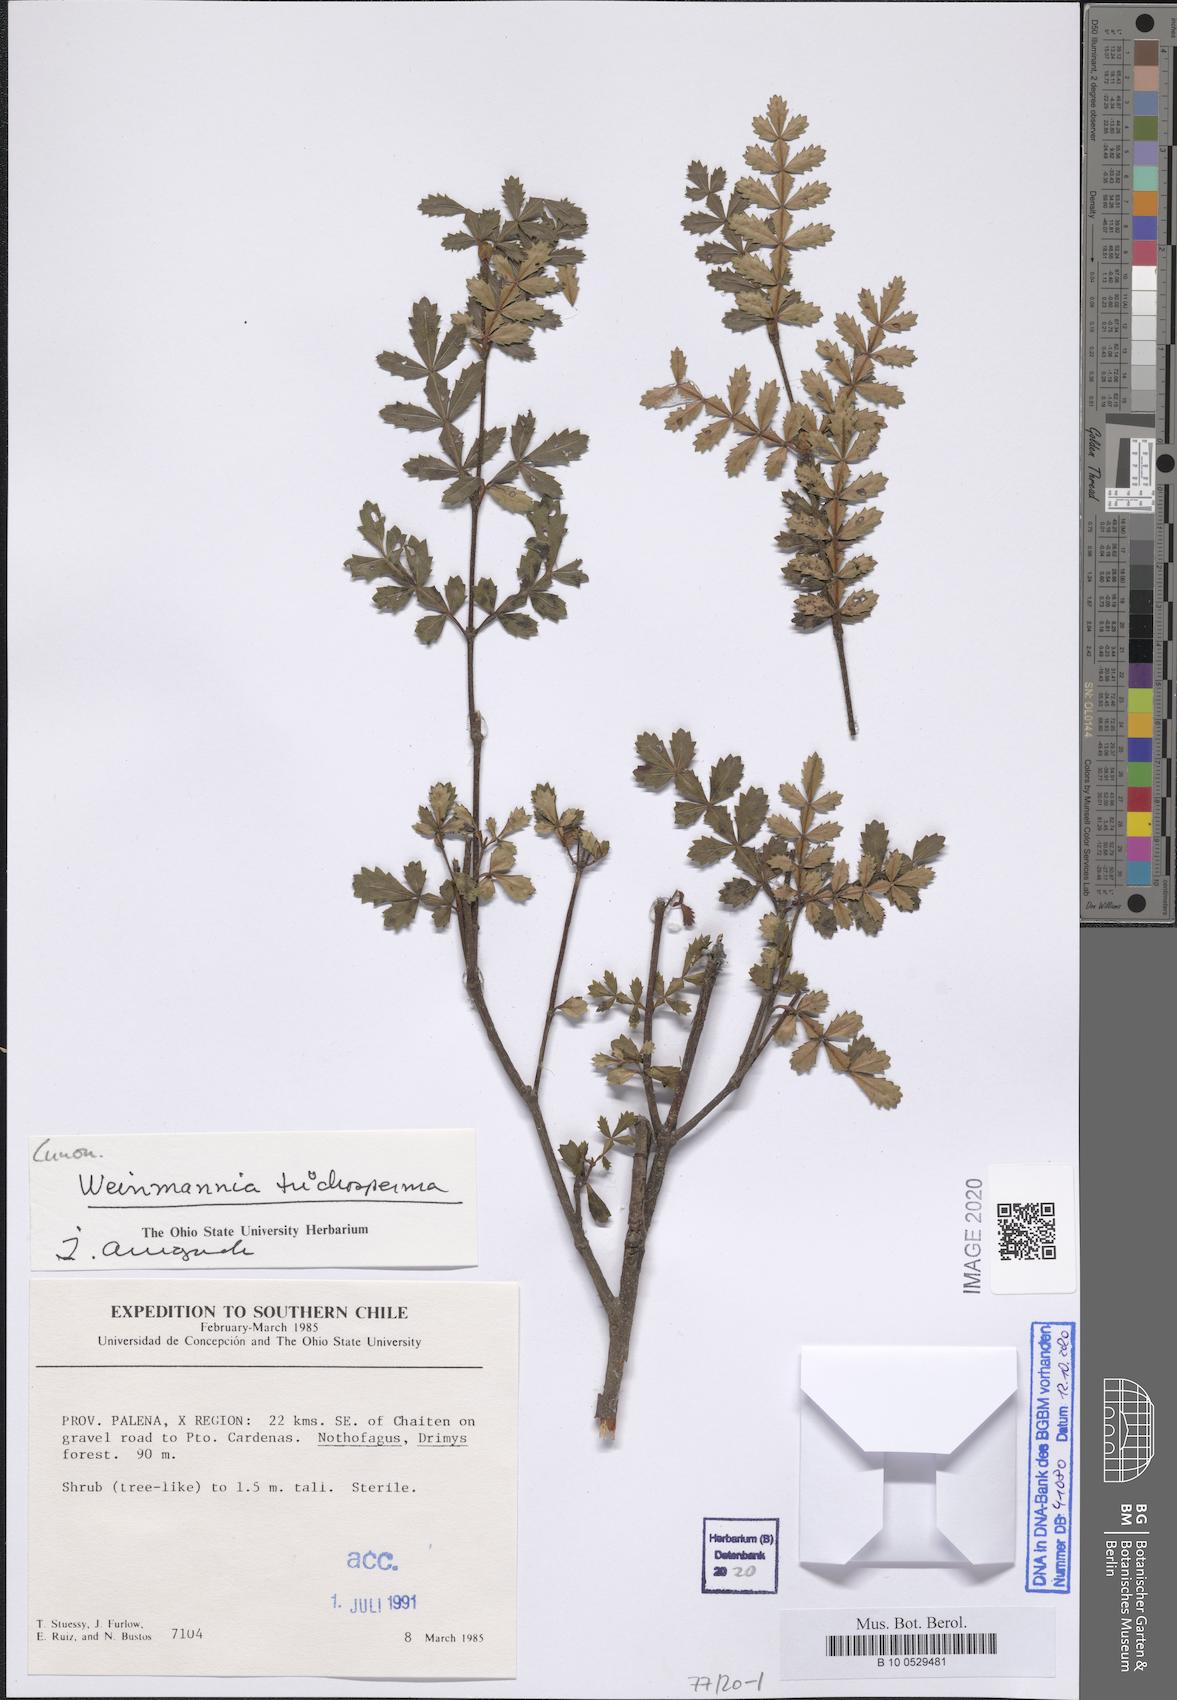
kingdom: Plantae
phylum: Tracheophyta
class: Magnoliopsida
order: Oxalidales
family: Cunoniaceae
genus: Weinmannia
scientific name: Weinmannia trichosperma
